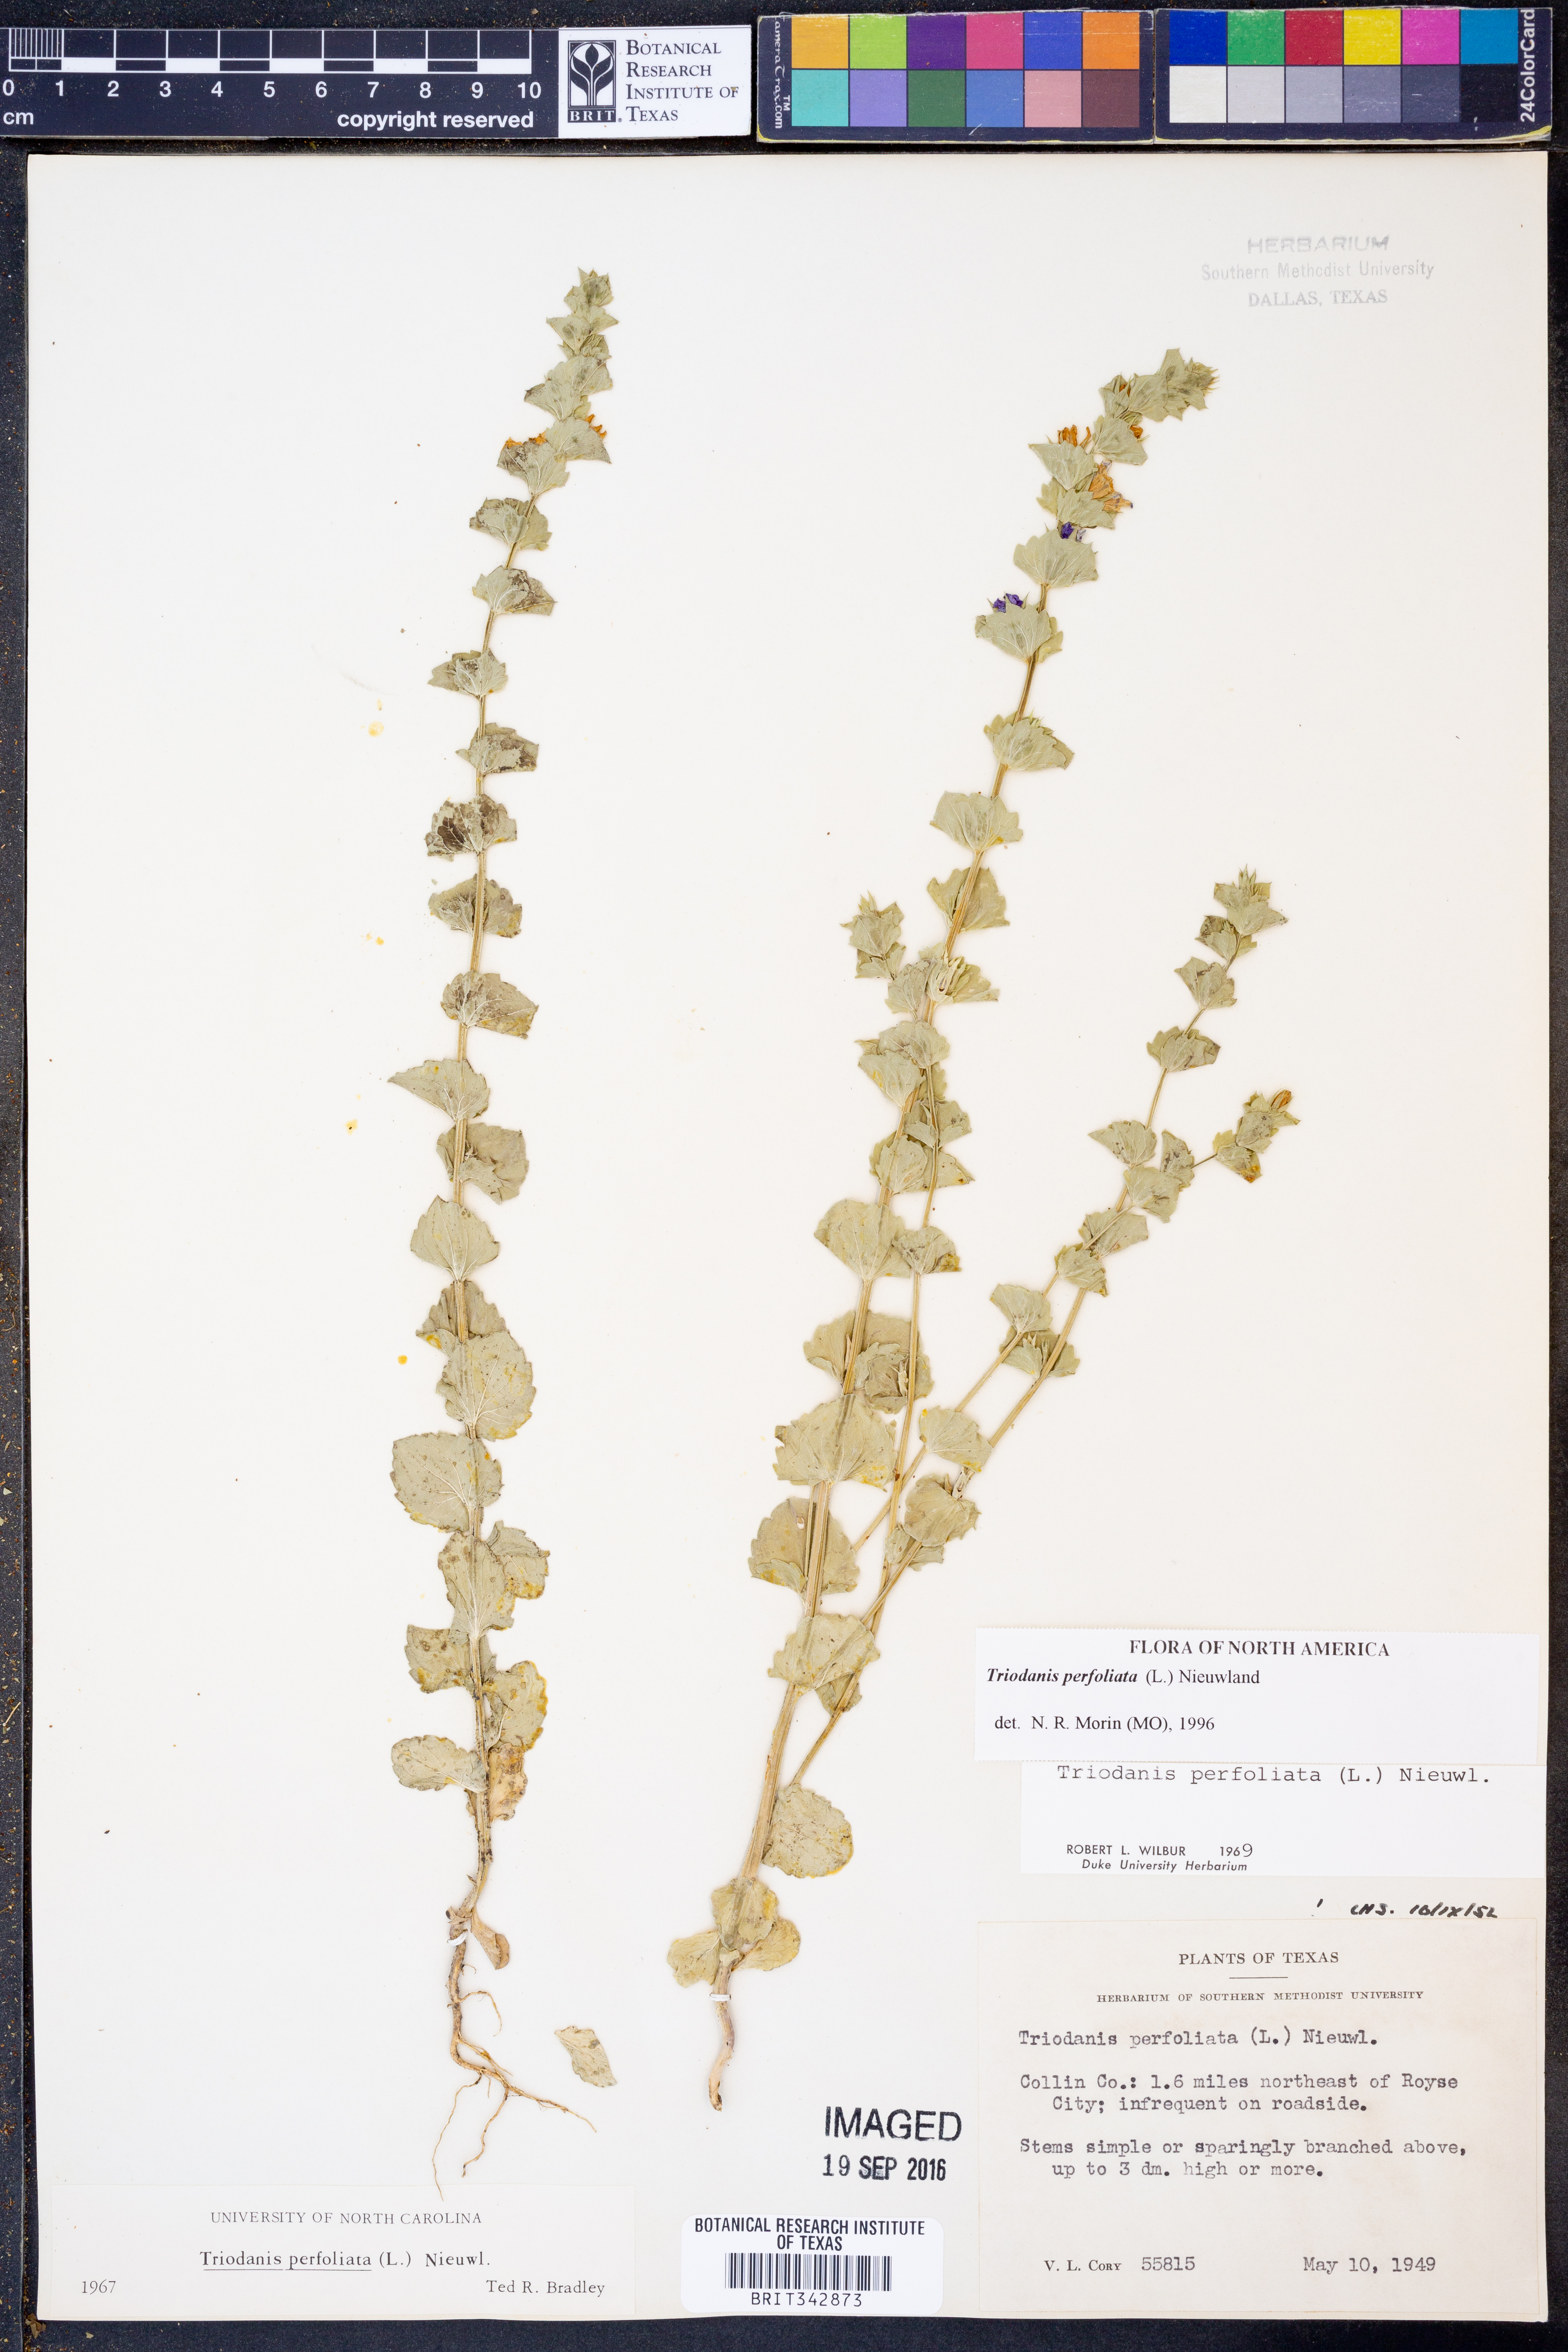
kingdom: Plantae
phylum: Tracheophyta
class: Magnoliopsida
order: Asterales
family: Campanulaceae
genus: Triodanis
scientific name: Triodanis perfoliata
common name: Clasping venus' looking-glass
